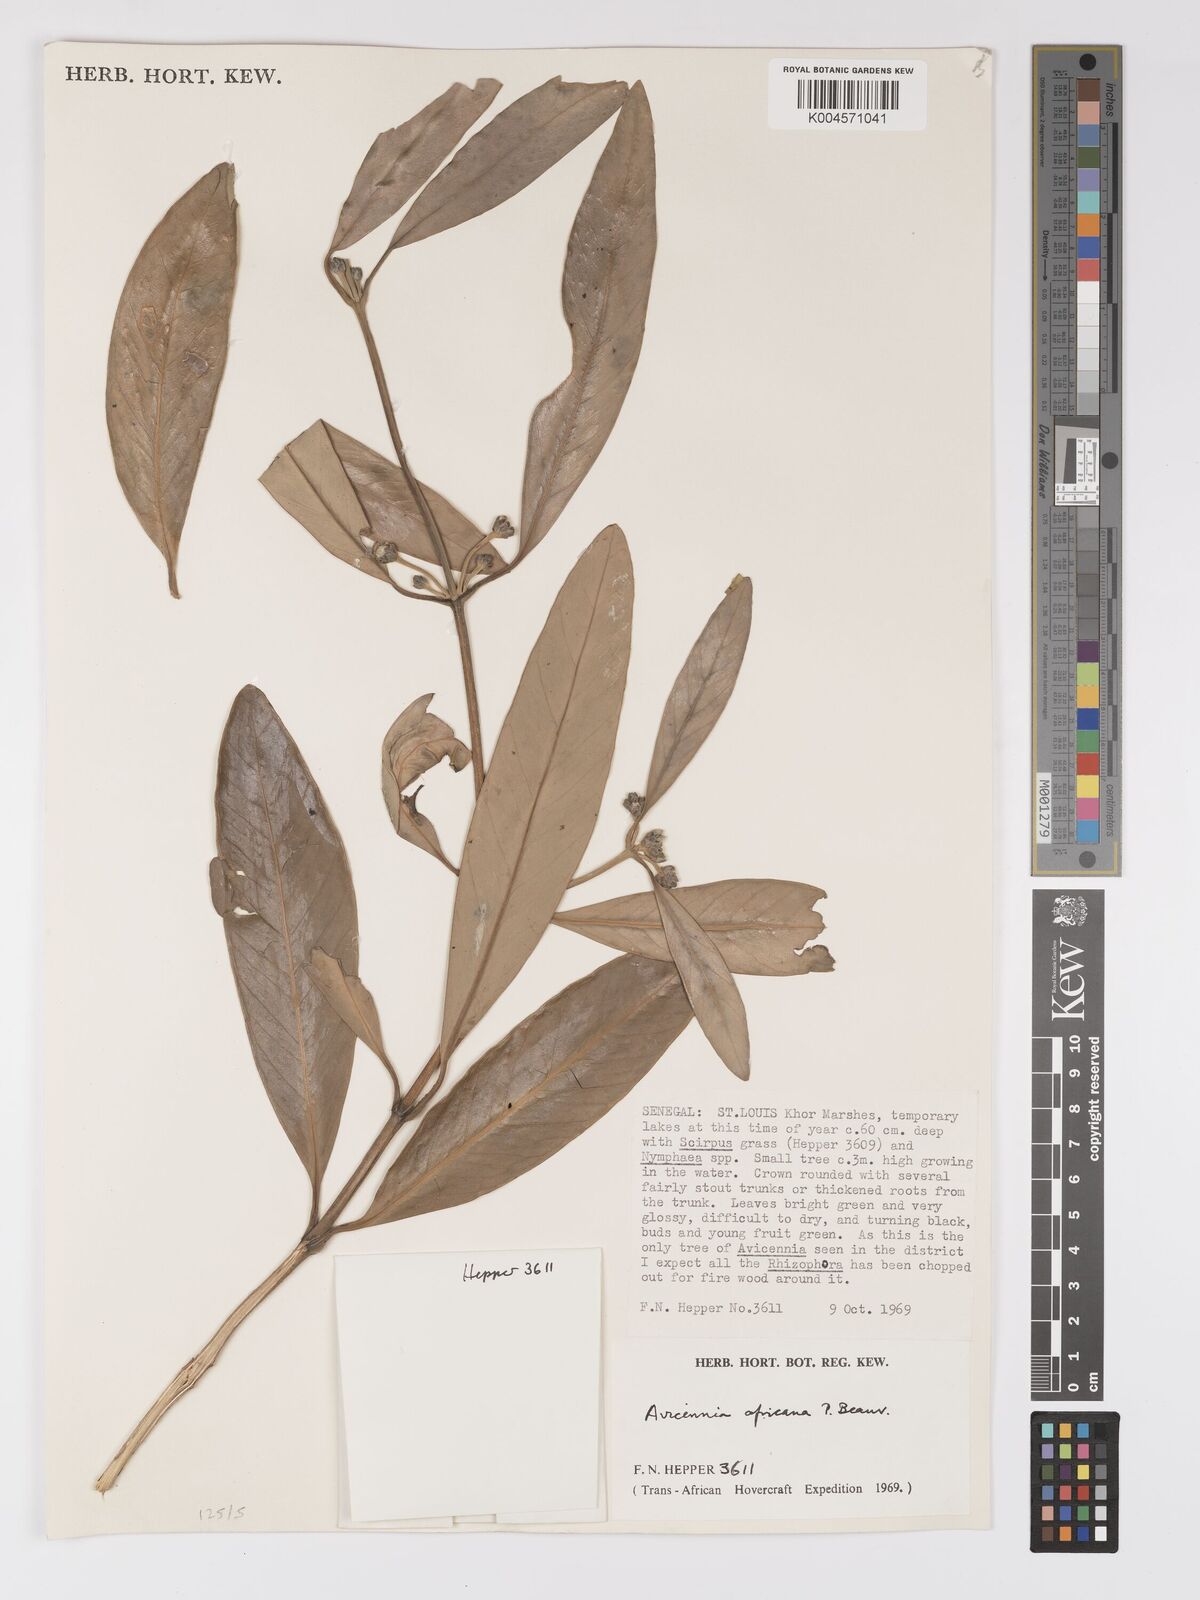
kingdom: Plantae
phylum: Tracheophyta
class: Magnoliopsida
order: Lamiales
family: Acanthaceae
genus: Avicennia
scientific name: Avicennia germinans
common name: Black mangrove
